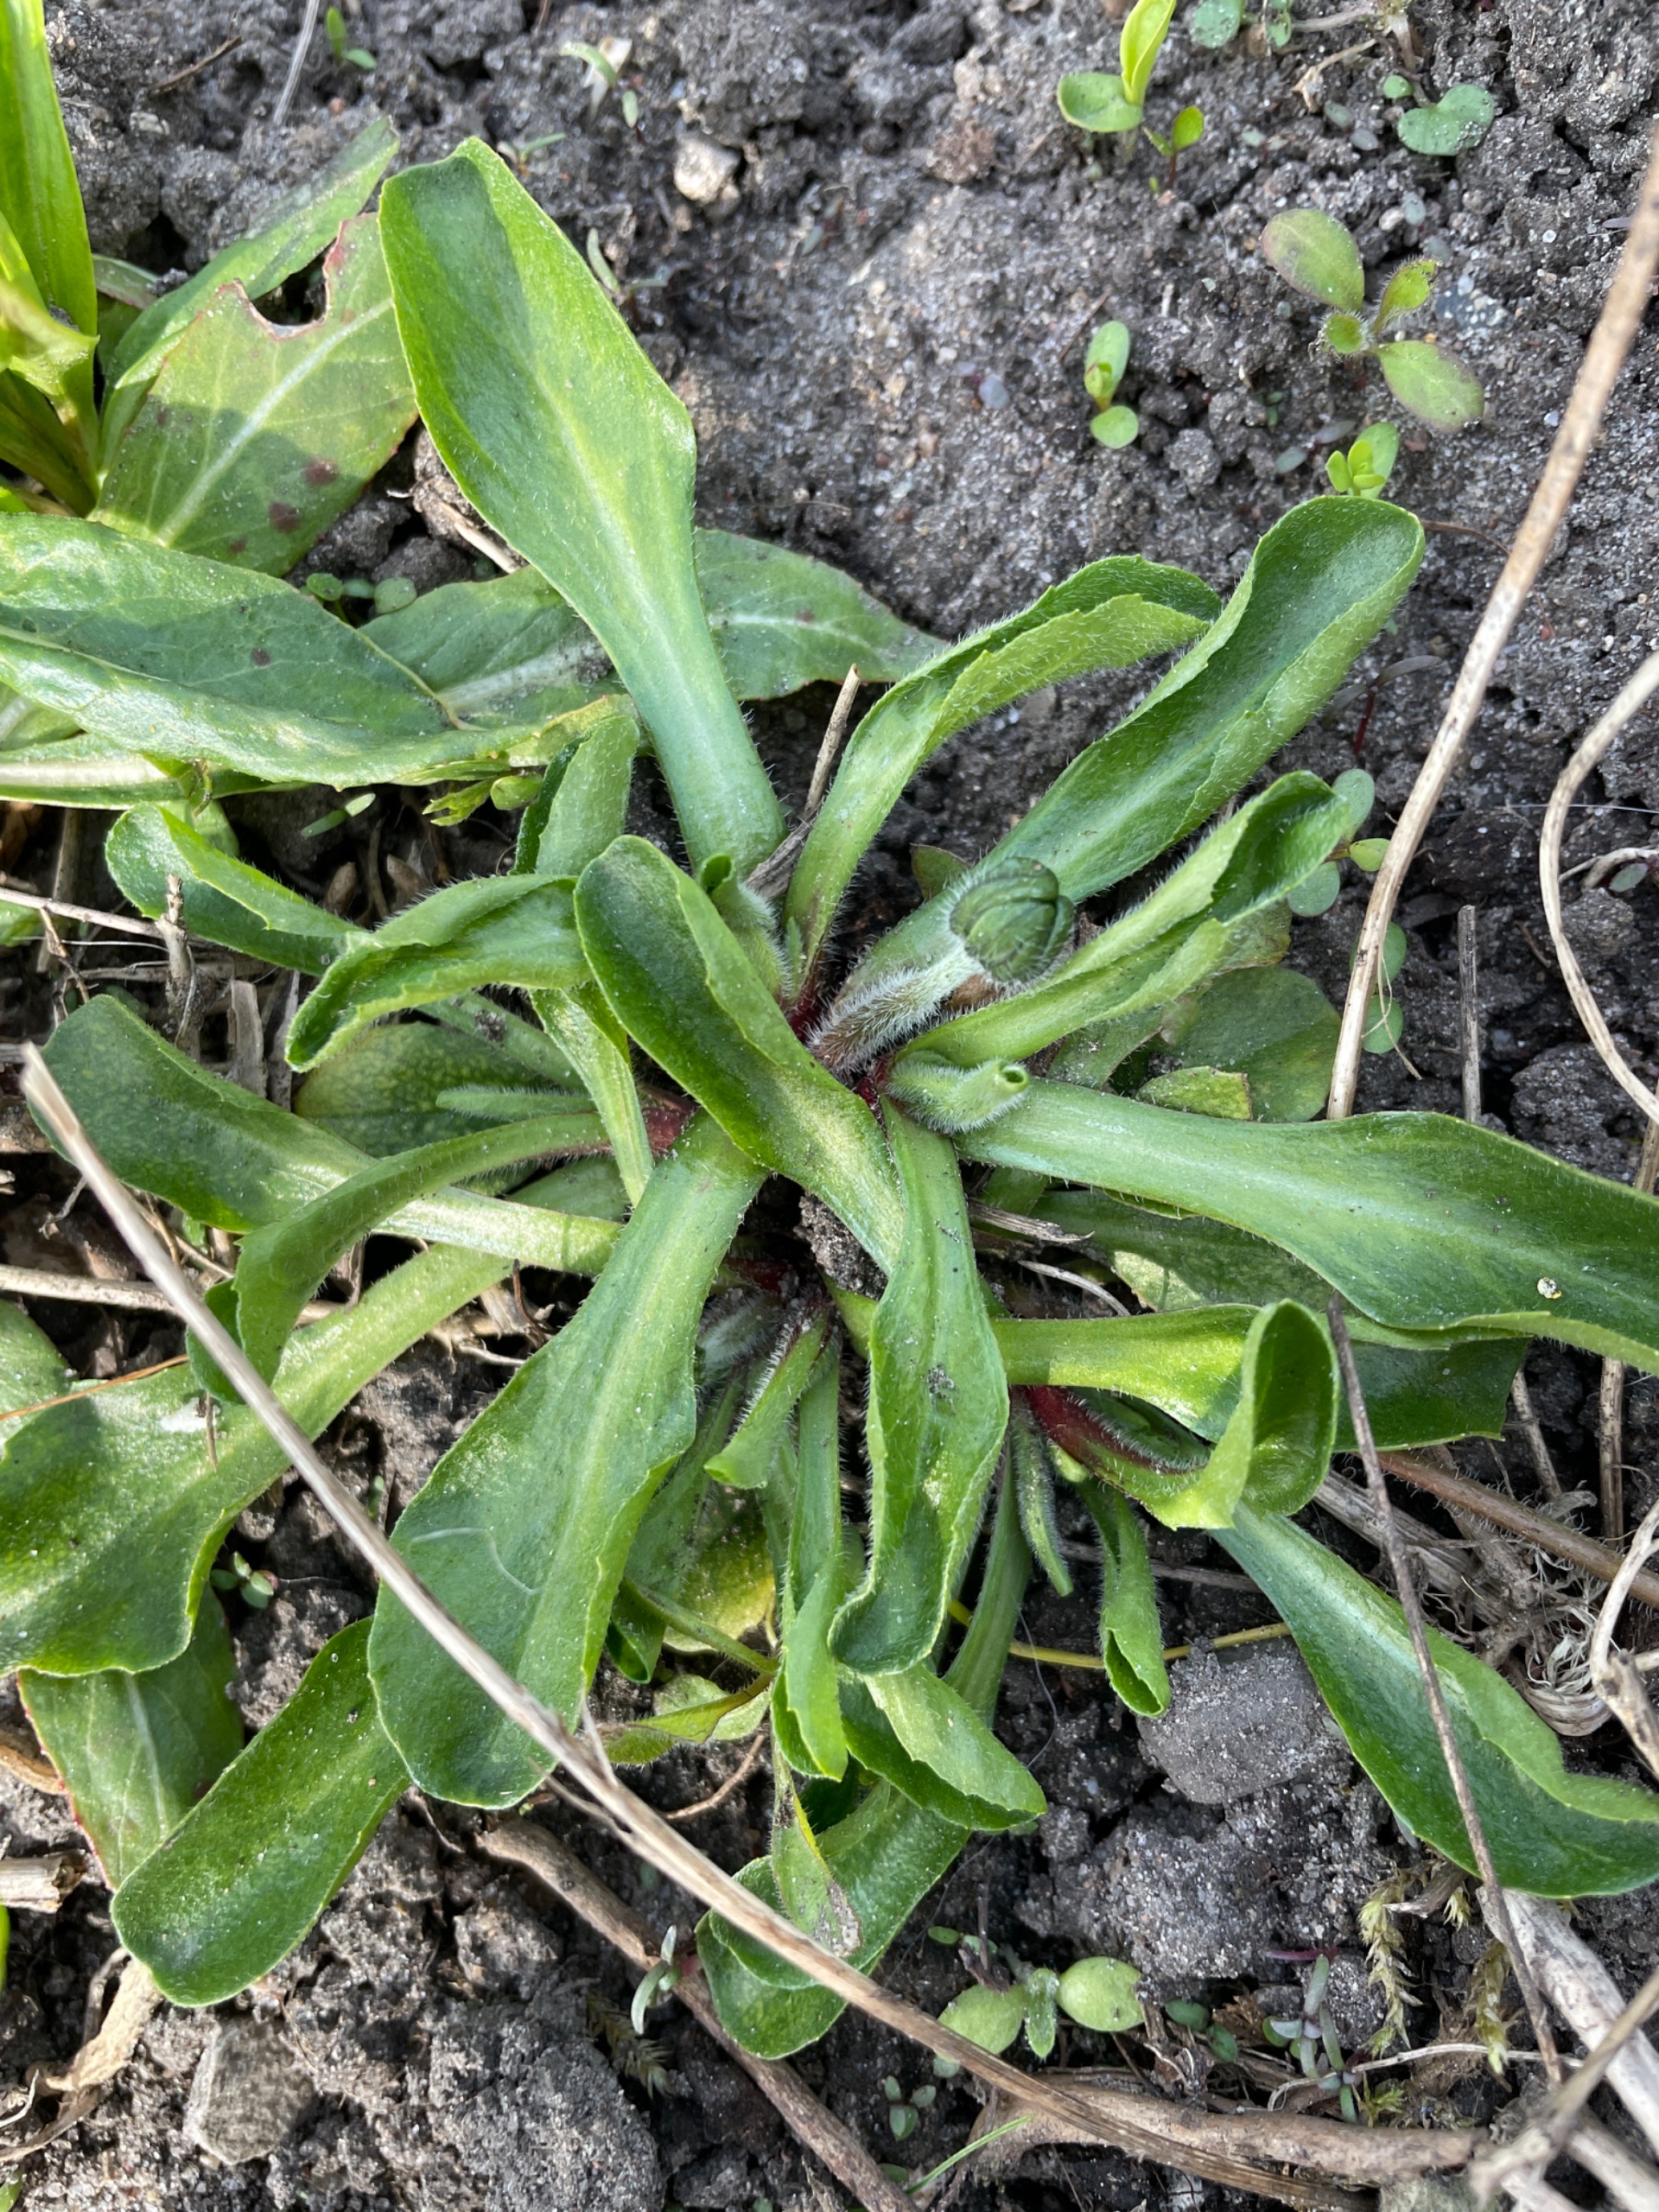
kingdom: Plantae
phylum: Tracheophyta
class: Magnoliopsida
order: Asterales
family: Asteraceae
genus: Bellis
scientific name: Bellis perennis
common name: Tusindfryd
